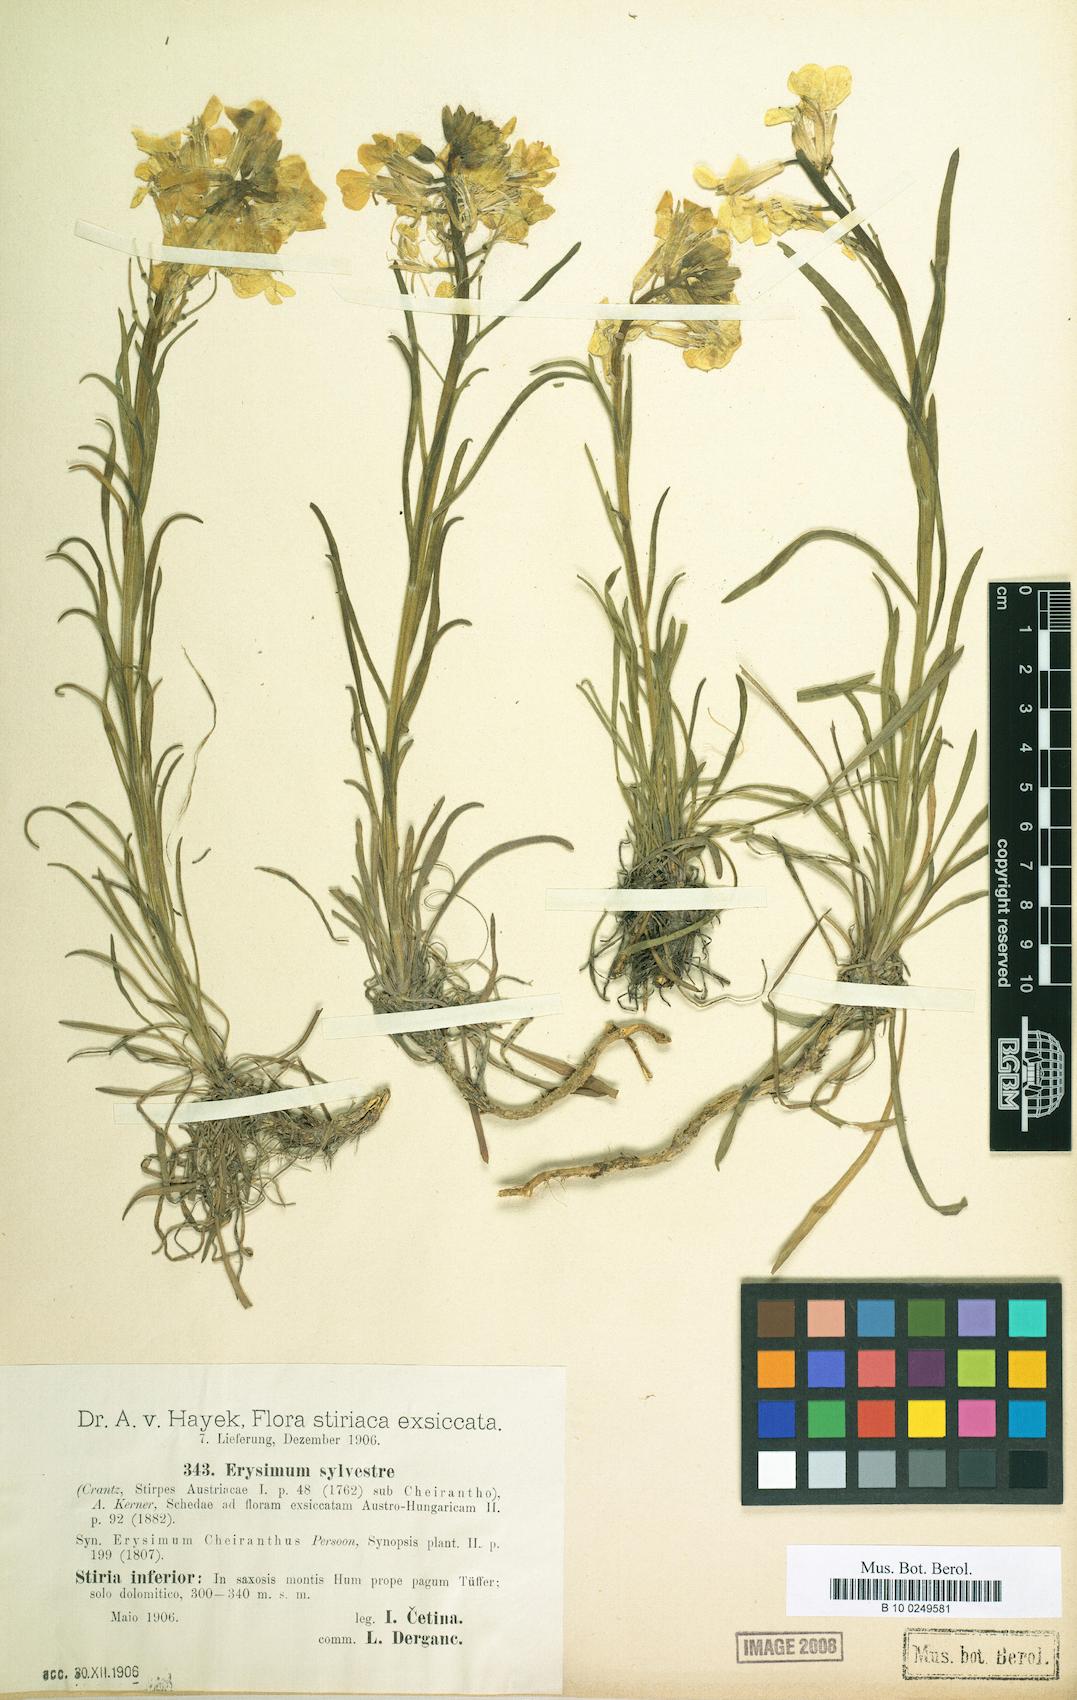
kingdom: Plantae
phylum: Tracheophyta
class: Magnoliopsida
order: Brassicales
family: Brassicaceae
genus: Erysimum
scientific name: Erysimum sylvestre
